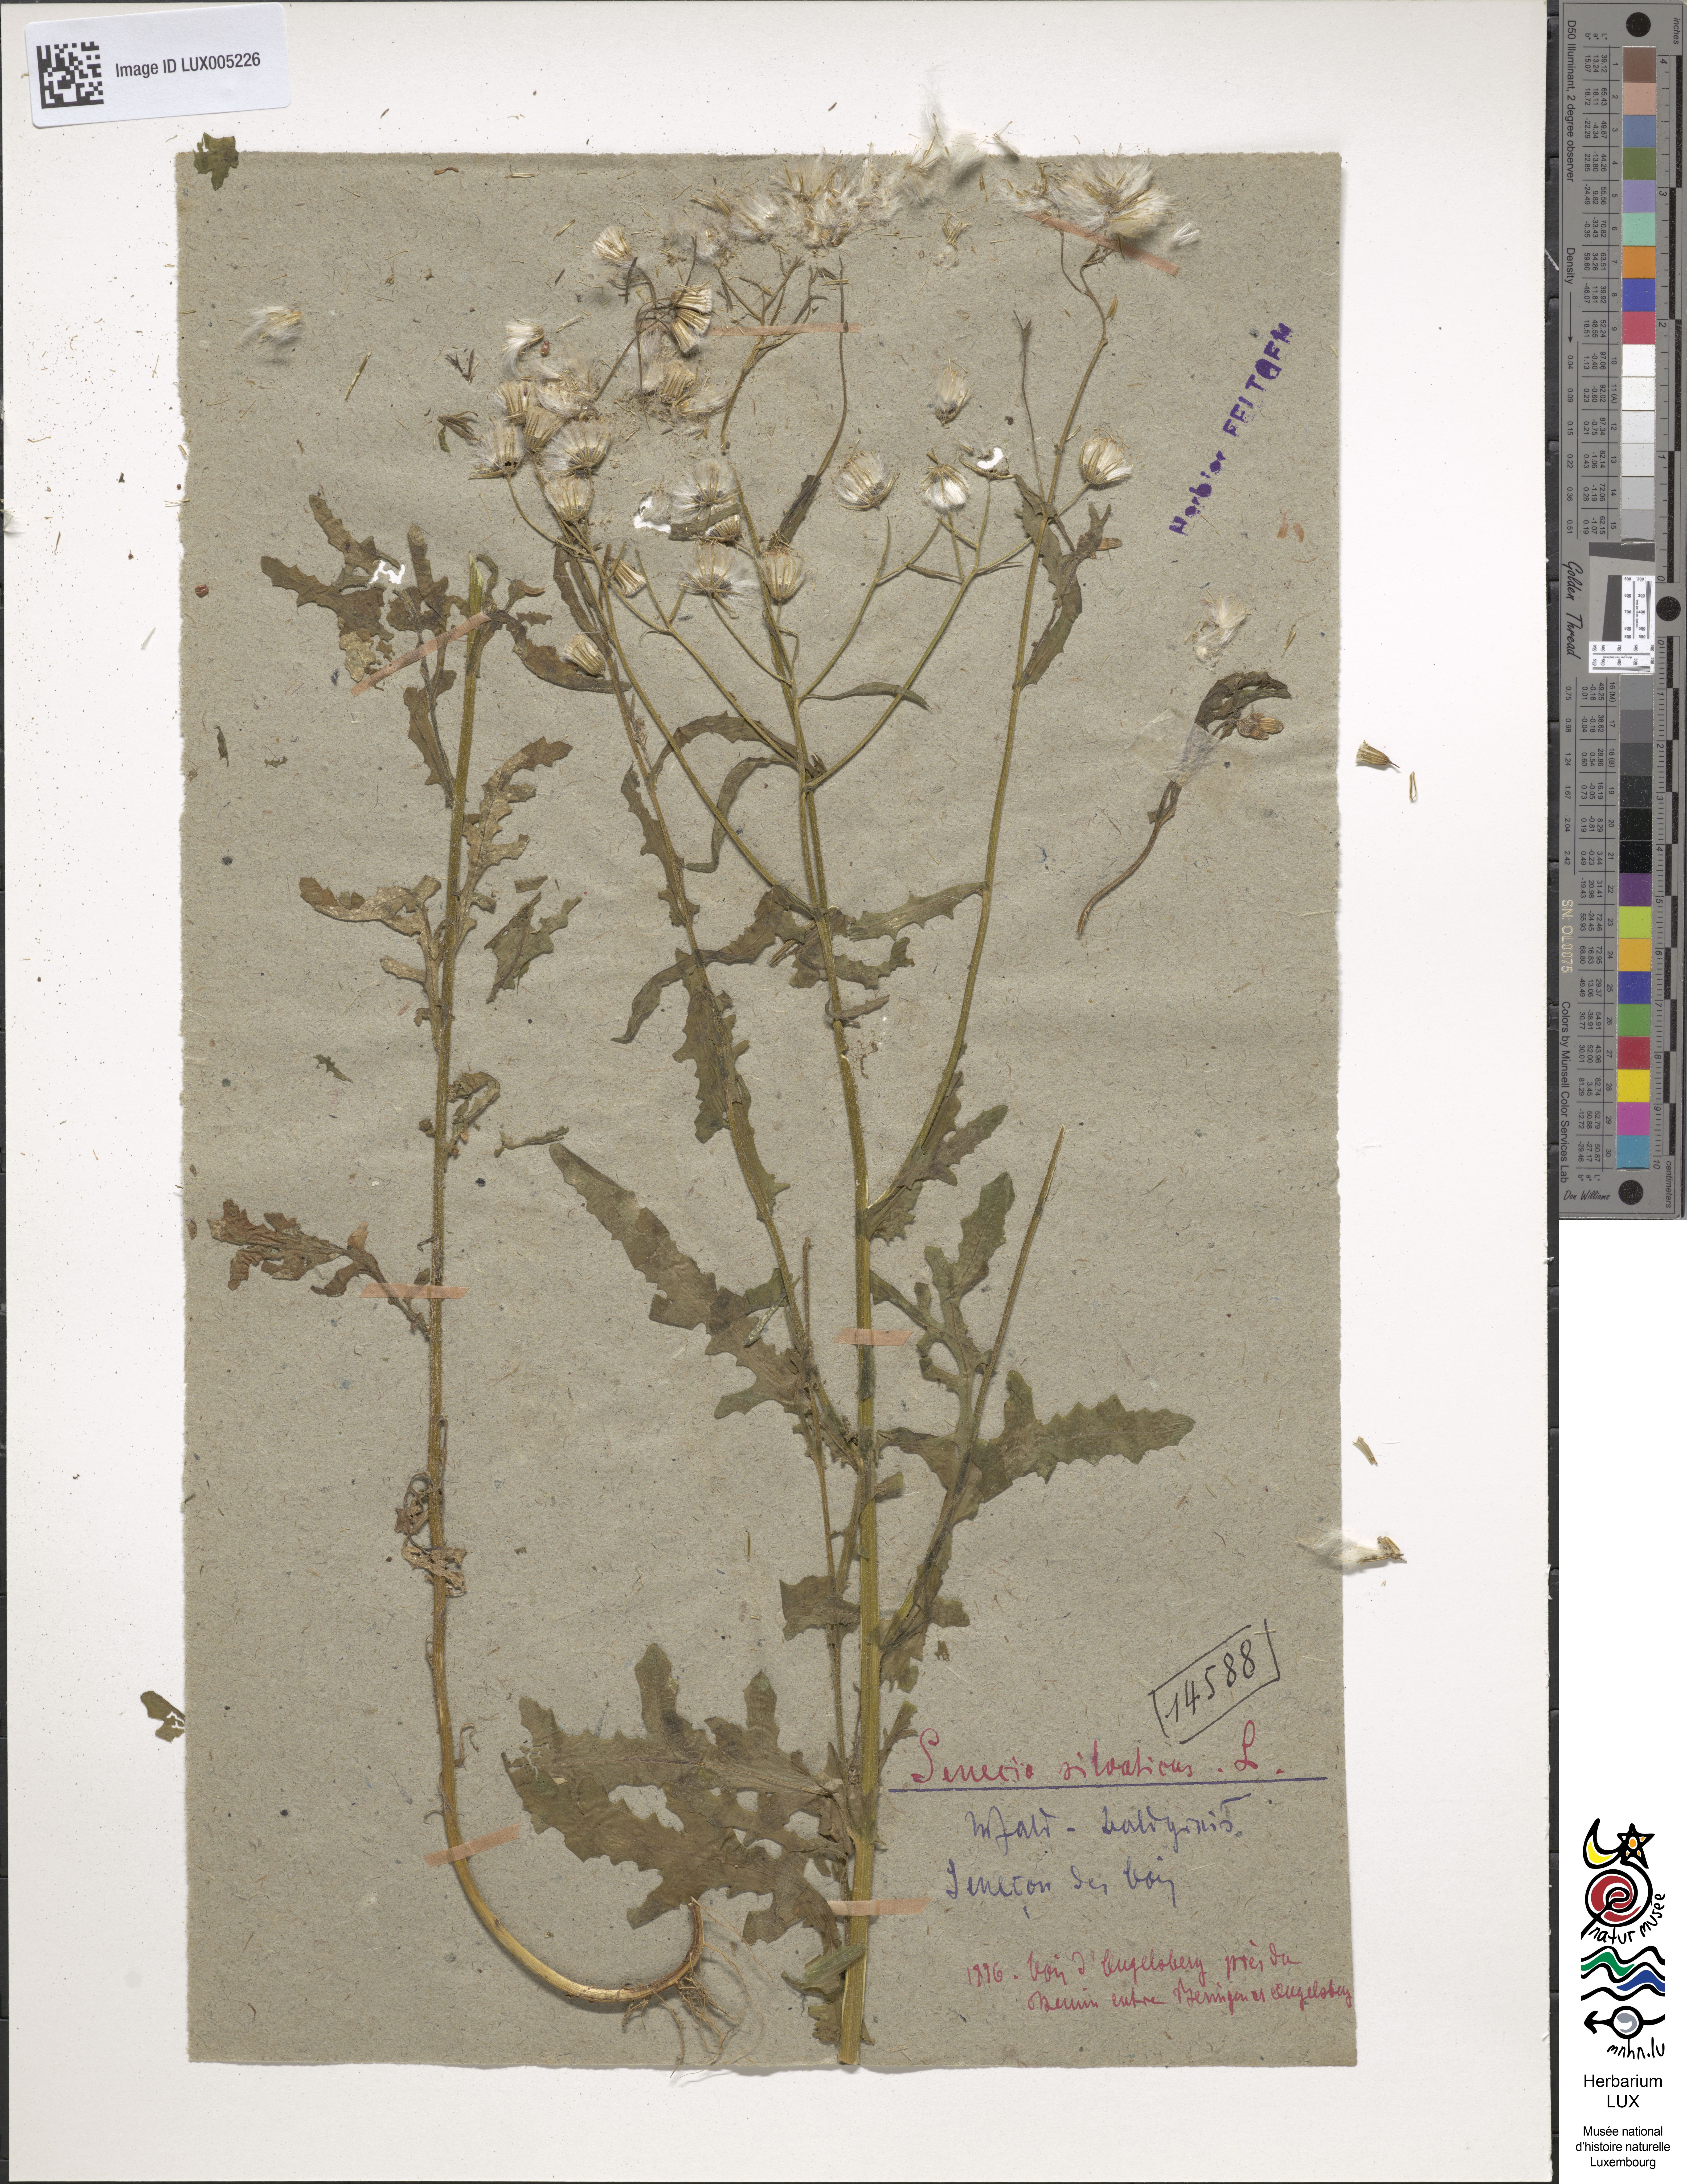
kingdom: Plantae
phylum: Tracheophyta
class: Magnoliopsida
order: Asterales
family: Asteraceae
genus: Senecio
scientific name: Senecio sylvaticus
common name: Woodland ragwort
